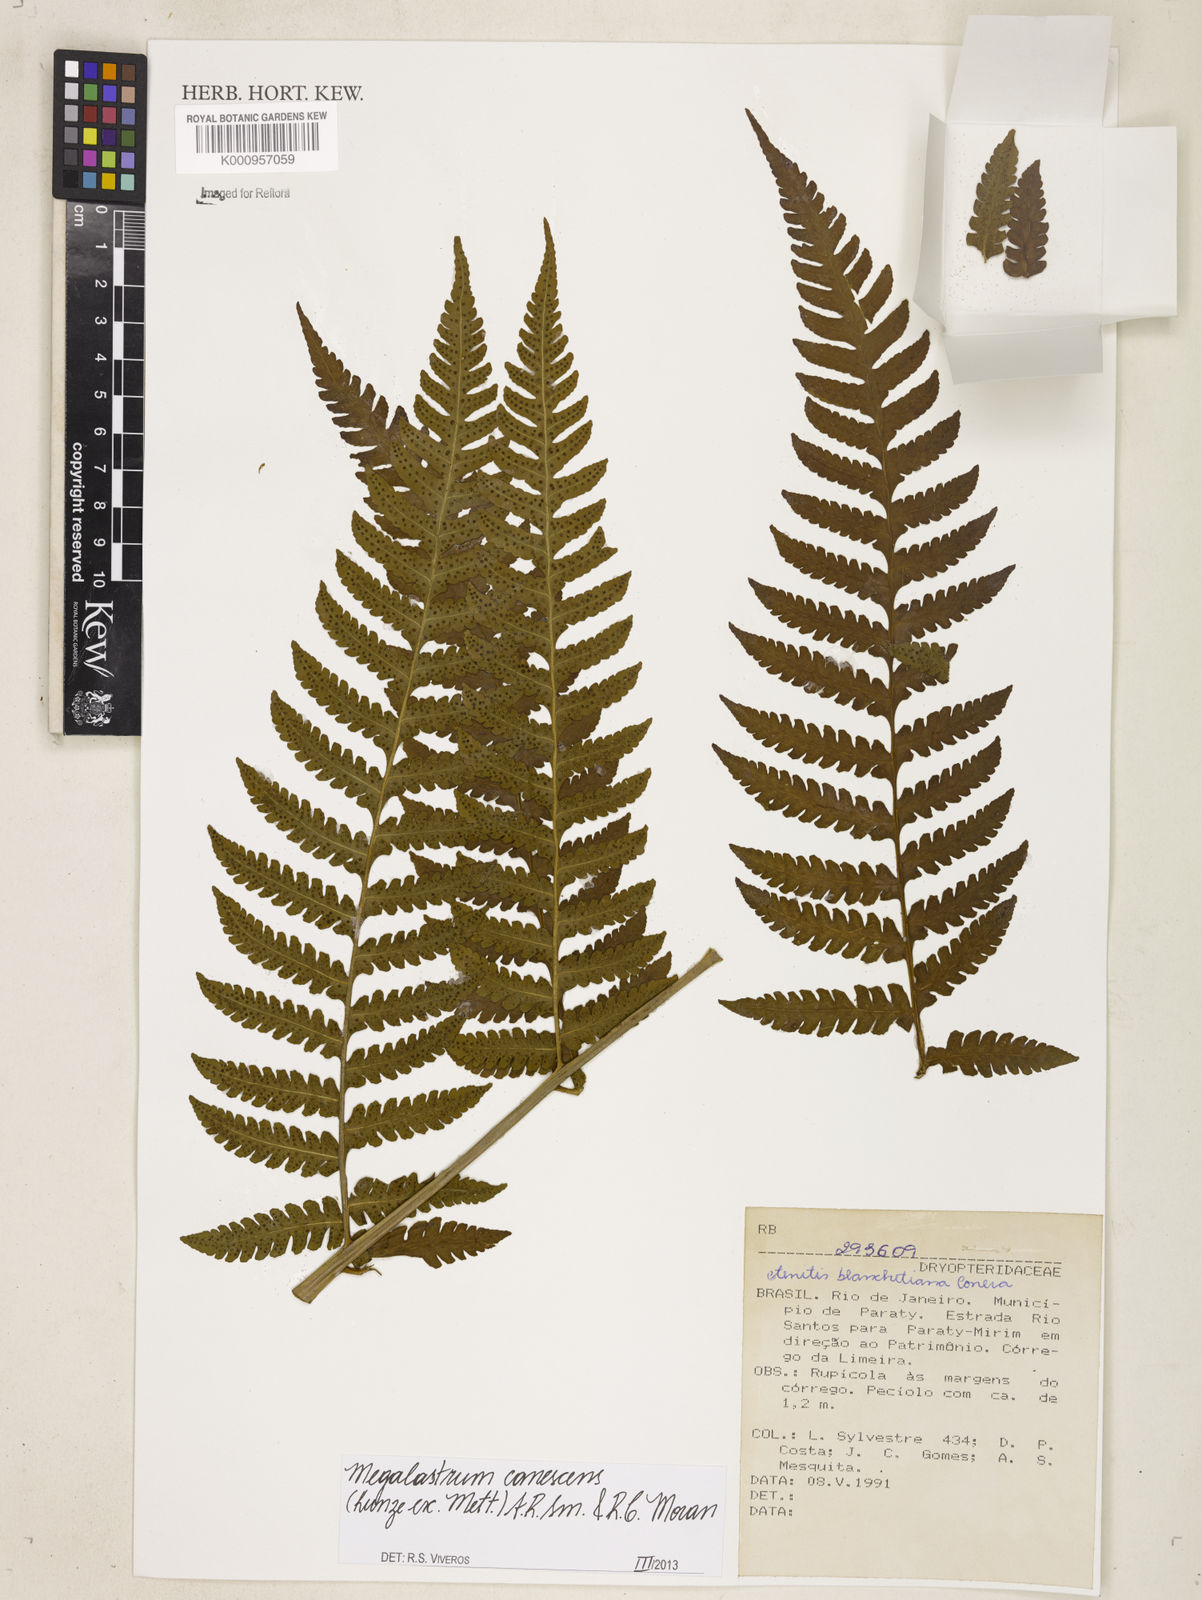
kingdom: Plantae
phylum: Tracheophyta
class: Polypodiopsida
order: Polypodiales
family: Dryopteridaceae
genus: Megalastrum
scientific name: Megalastrum canescens
